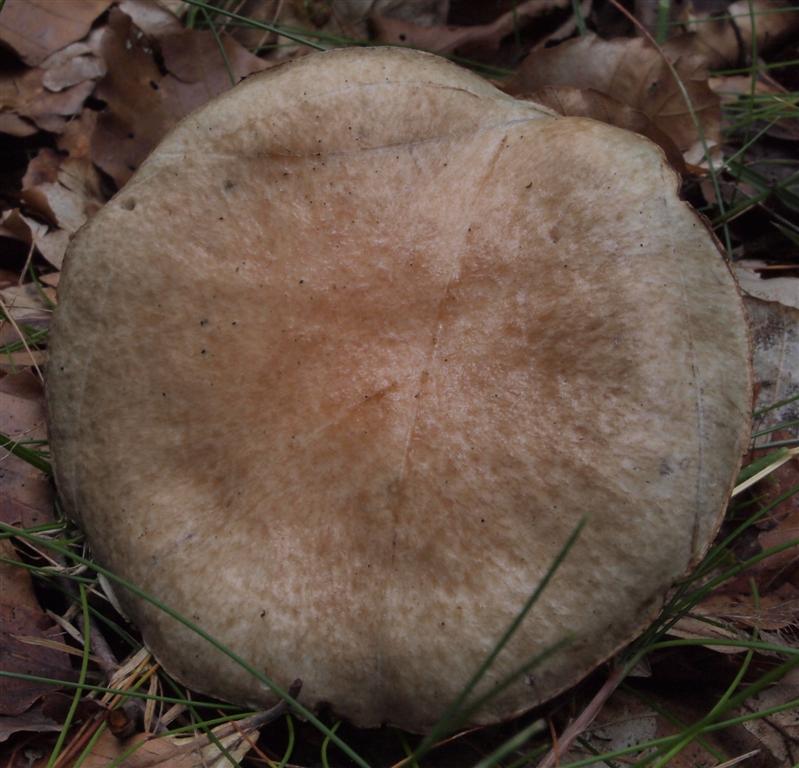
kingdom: Fungi
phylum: Basidiomycota
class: Agaricomycetes
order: Boletales
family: Suillaceae
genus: Suillus
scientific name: Suillus viscidus
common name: olivengrå slimrørhat
